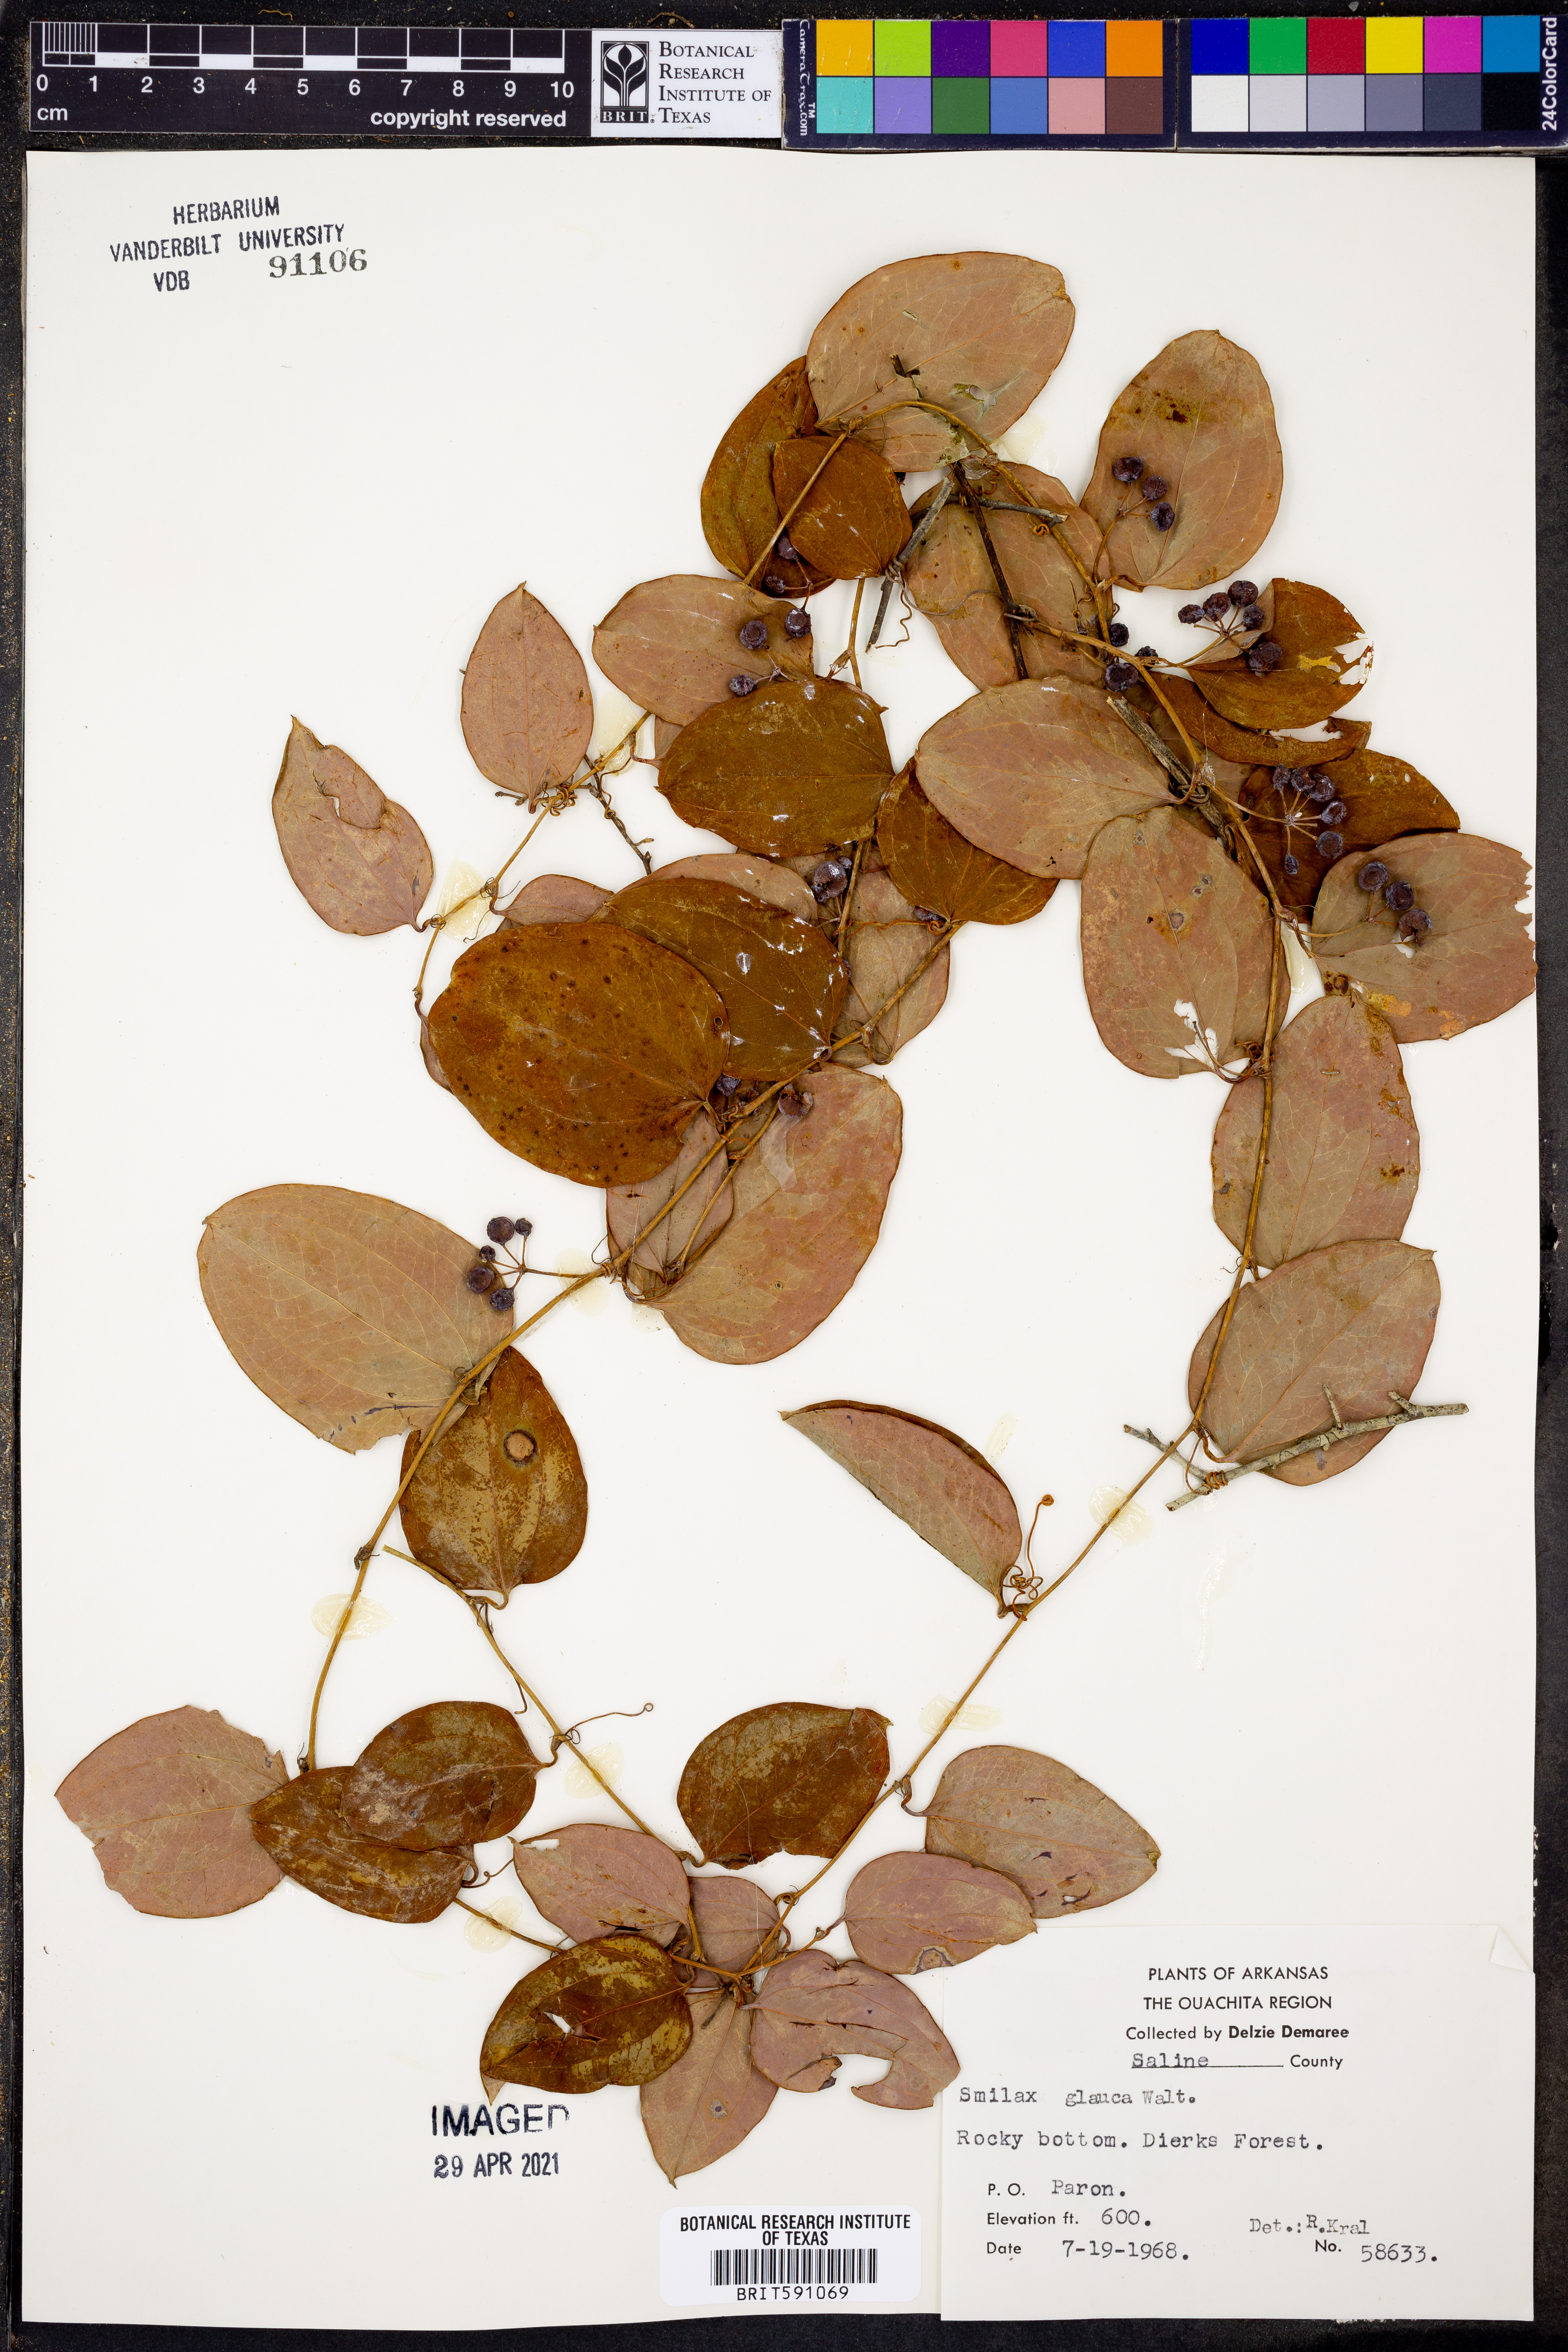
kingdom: Plantae
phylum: Tracheophyta
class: Liliopsida
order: Liliales
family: Smilacaceae
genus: Smilax
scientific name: Smilax glauca
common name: Cat greenbrier
